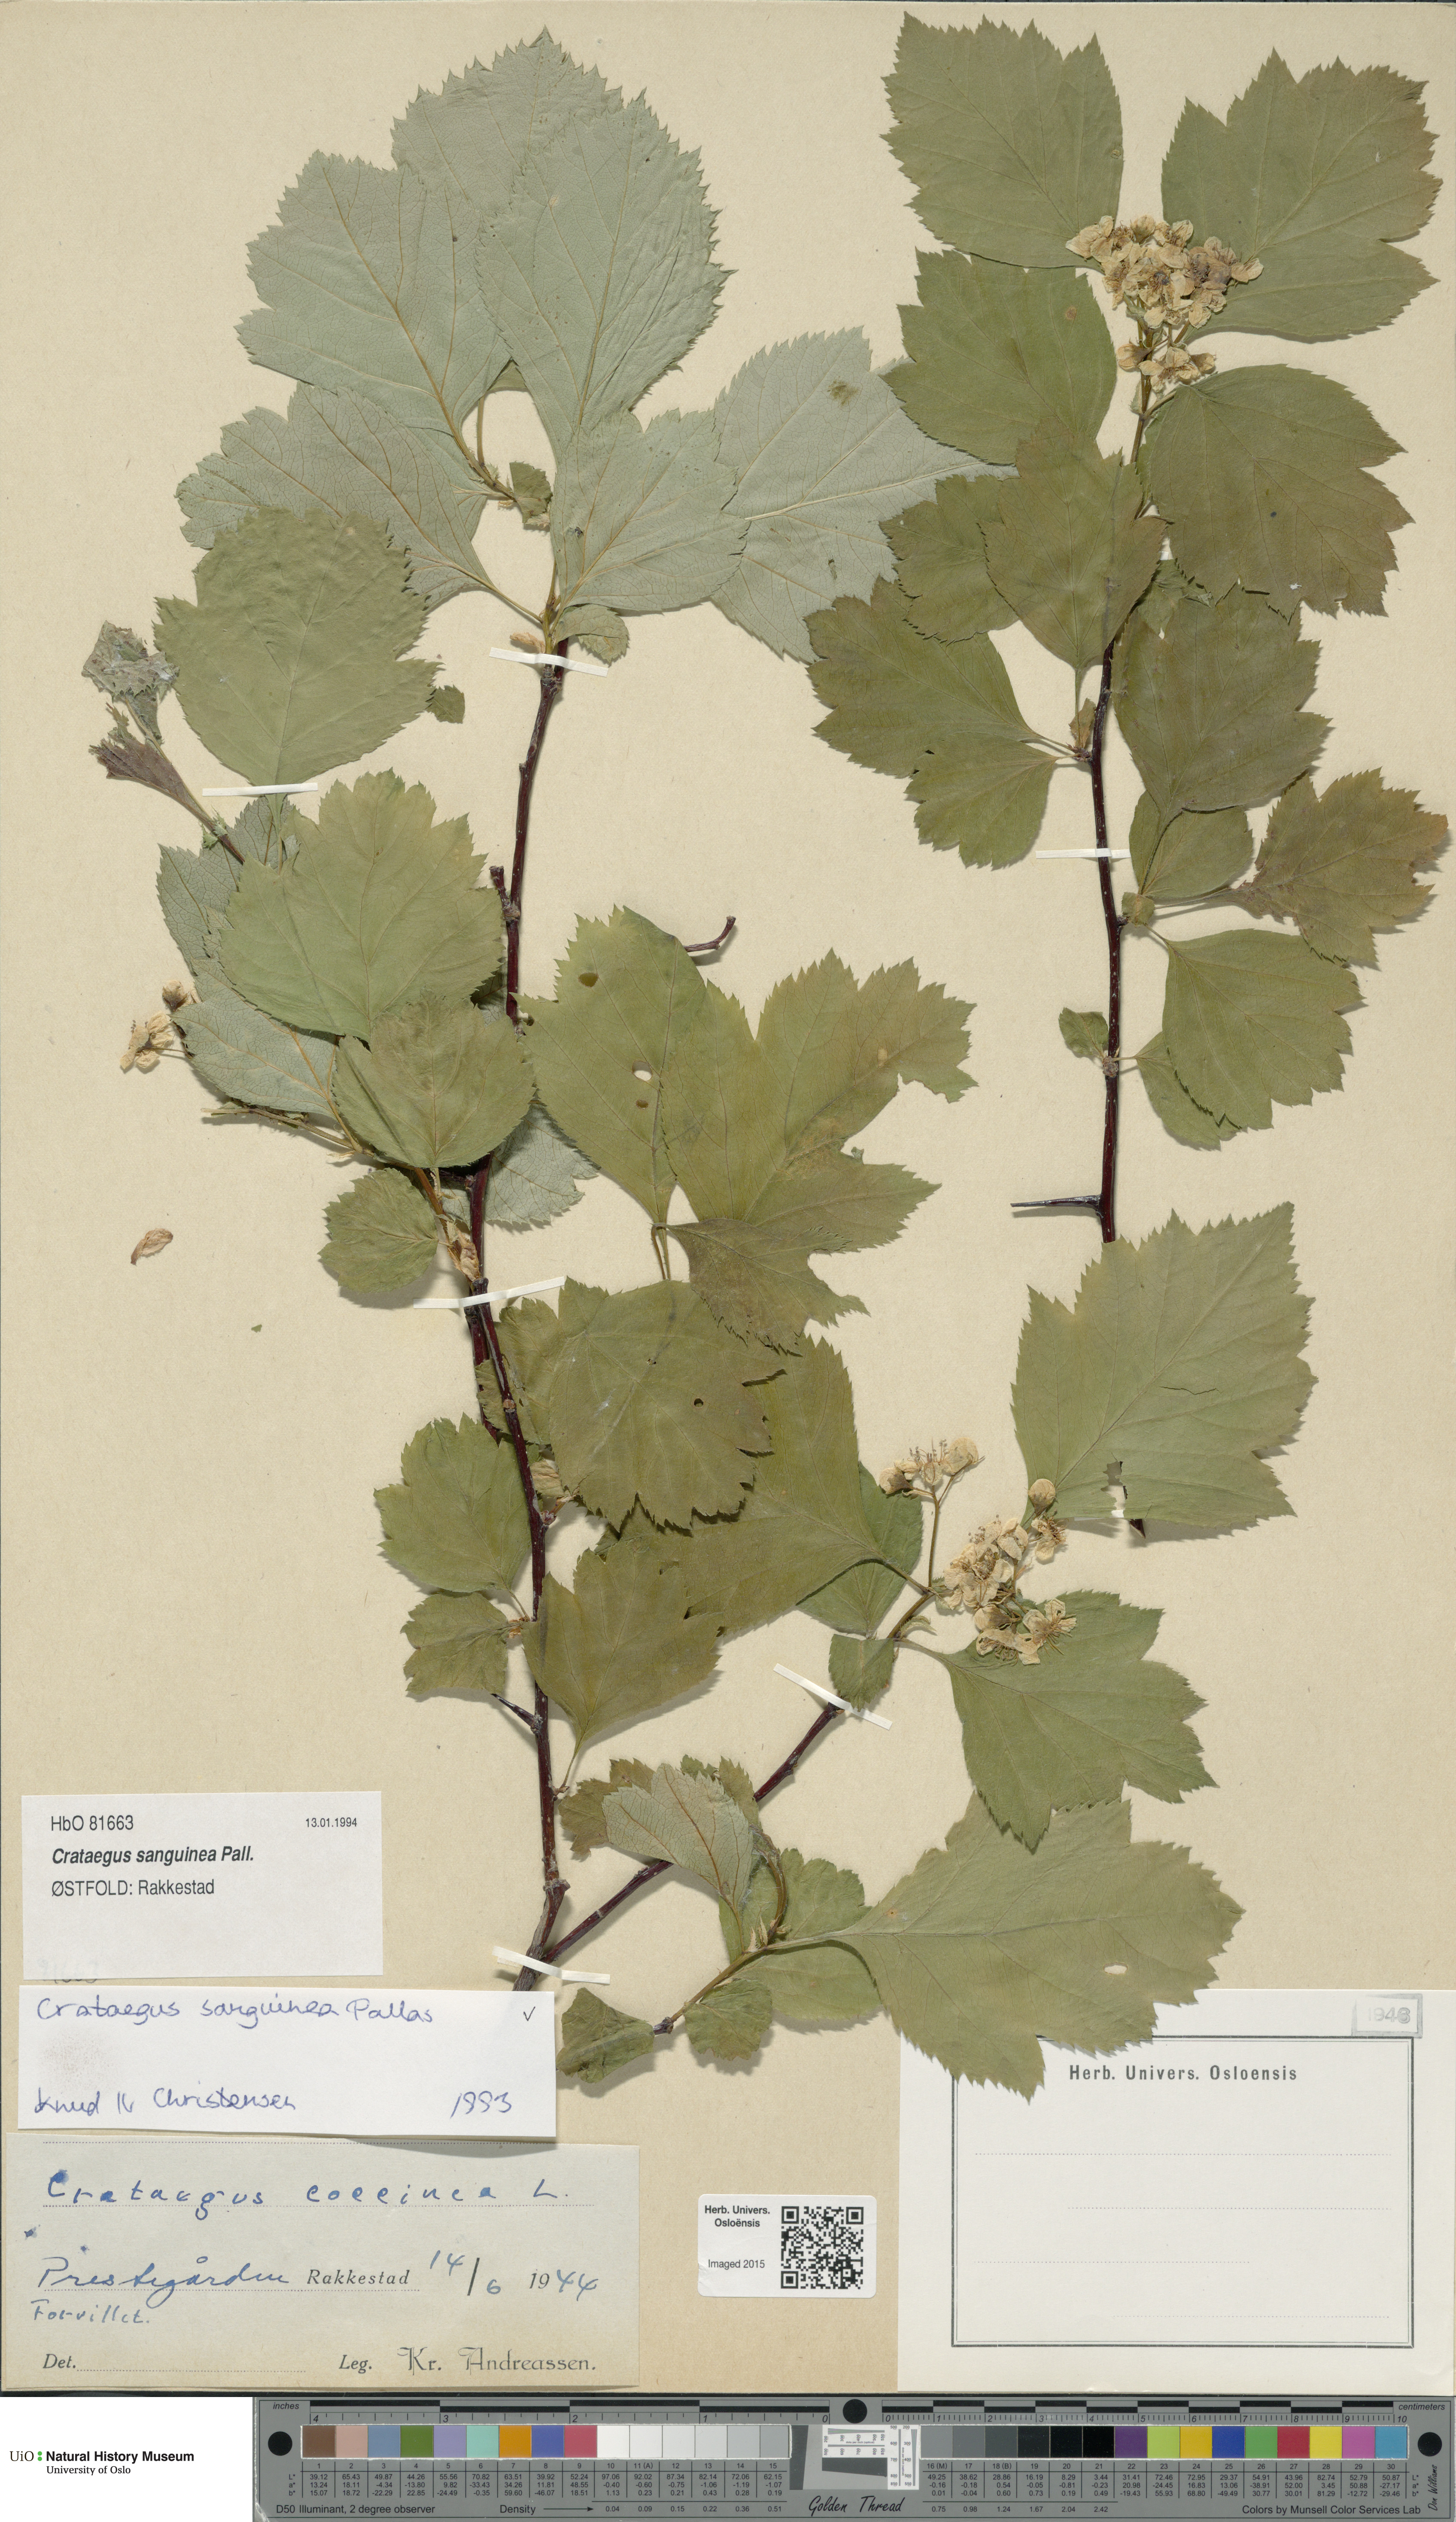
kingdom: Plantae
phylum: Tracheophyta
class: Magnoliopsida
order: Rosales
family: Rosaceae
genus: Crataegus
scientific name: Crataegus sanguinea
